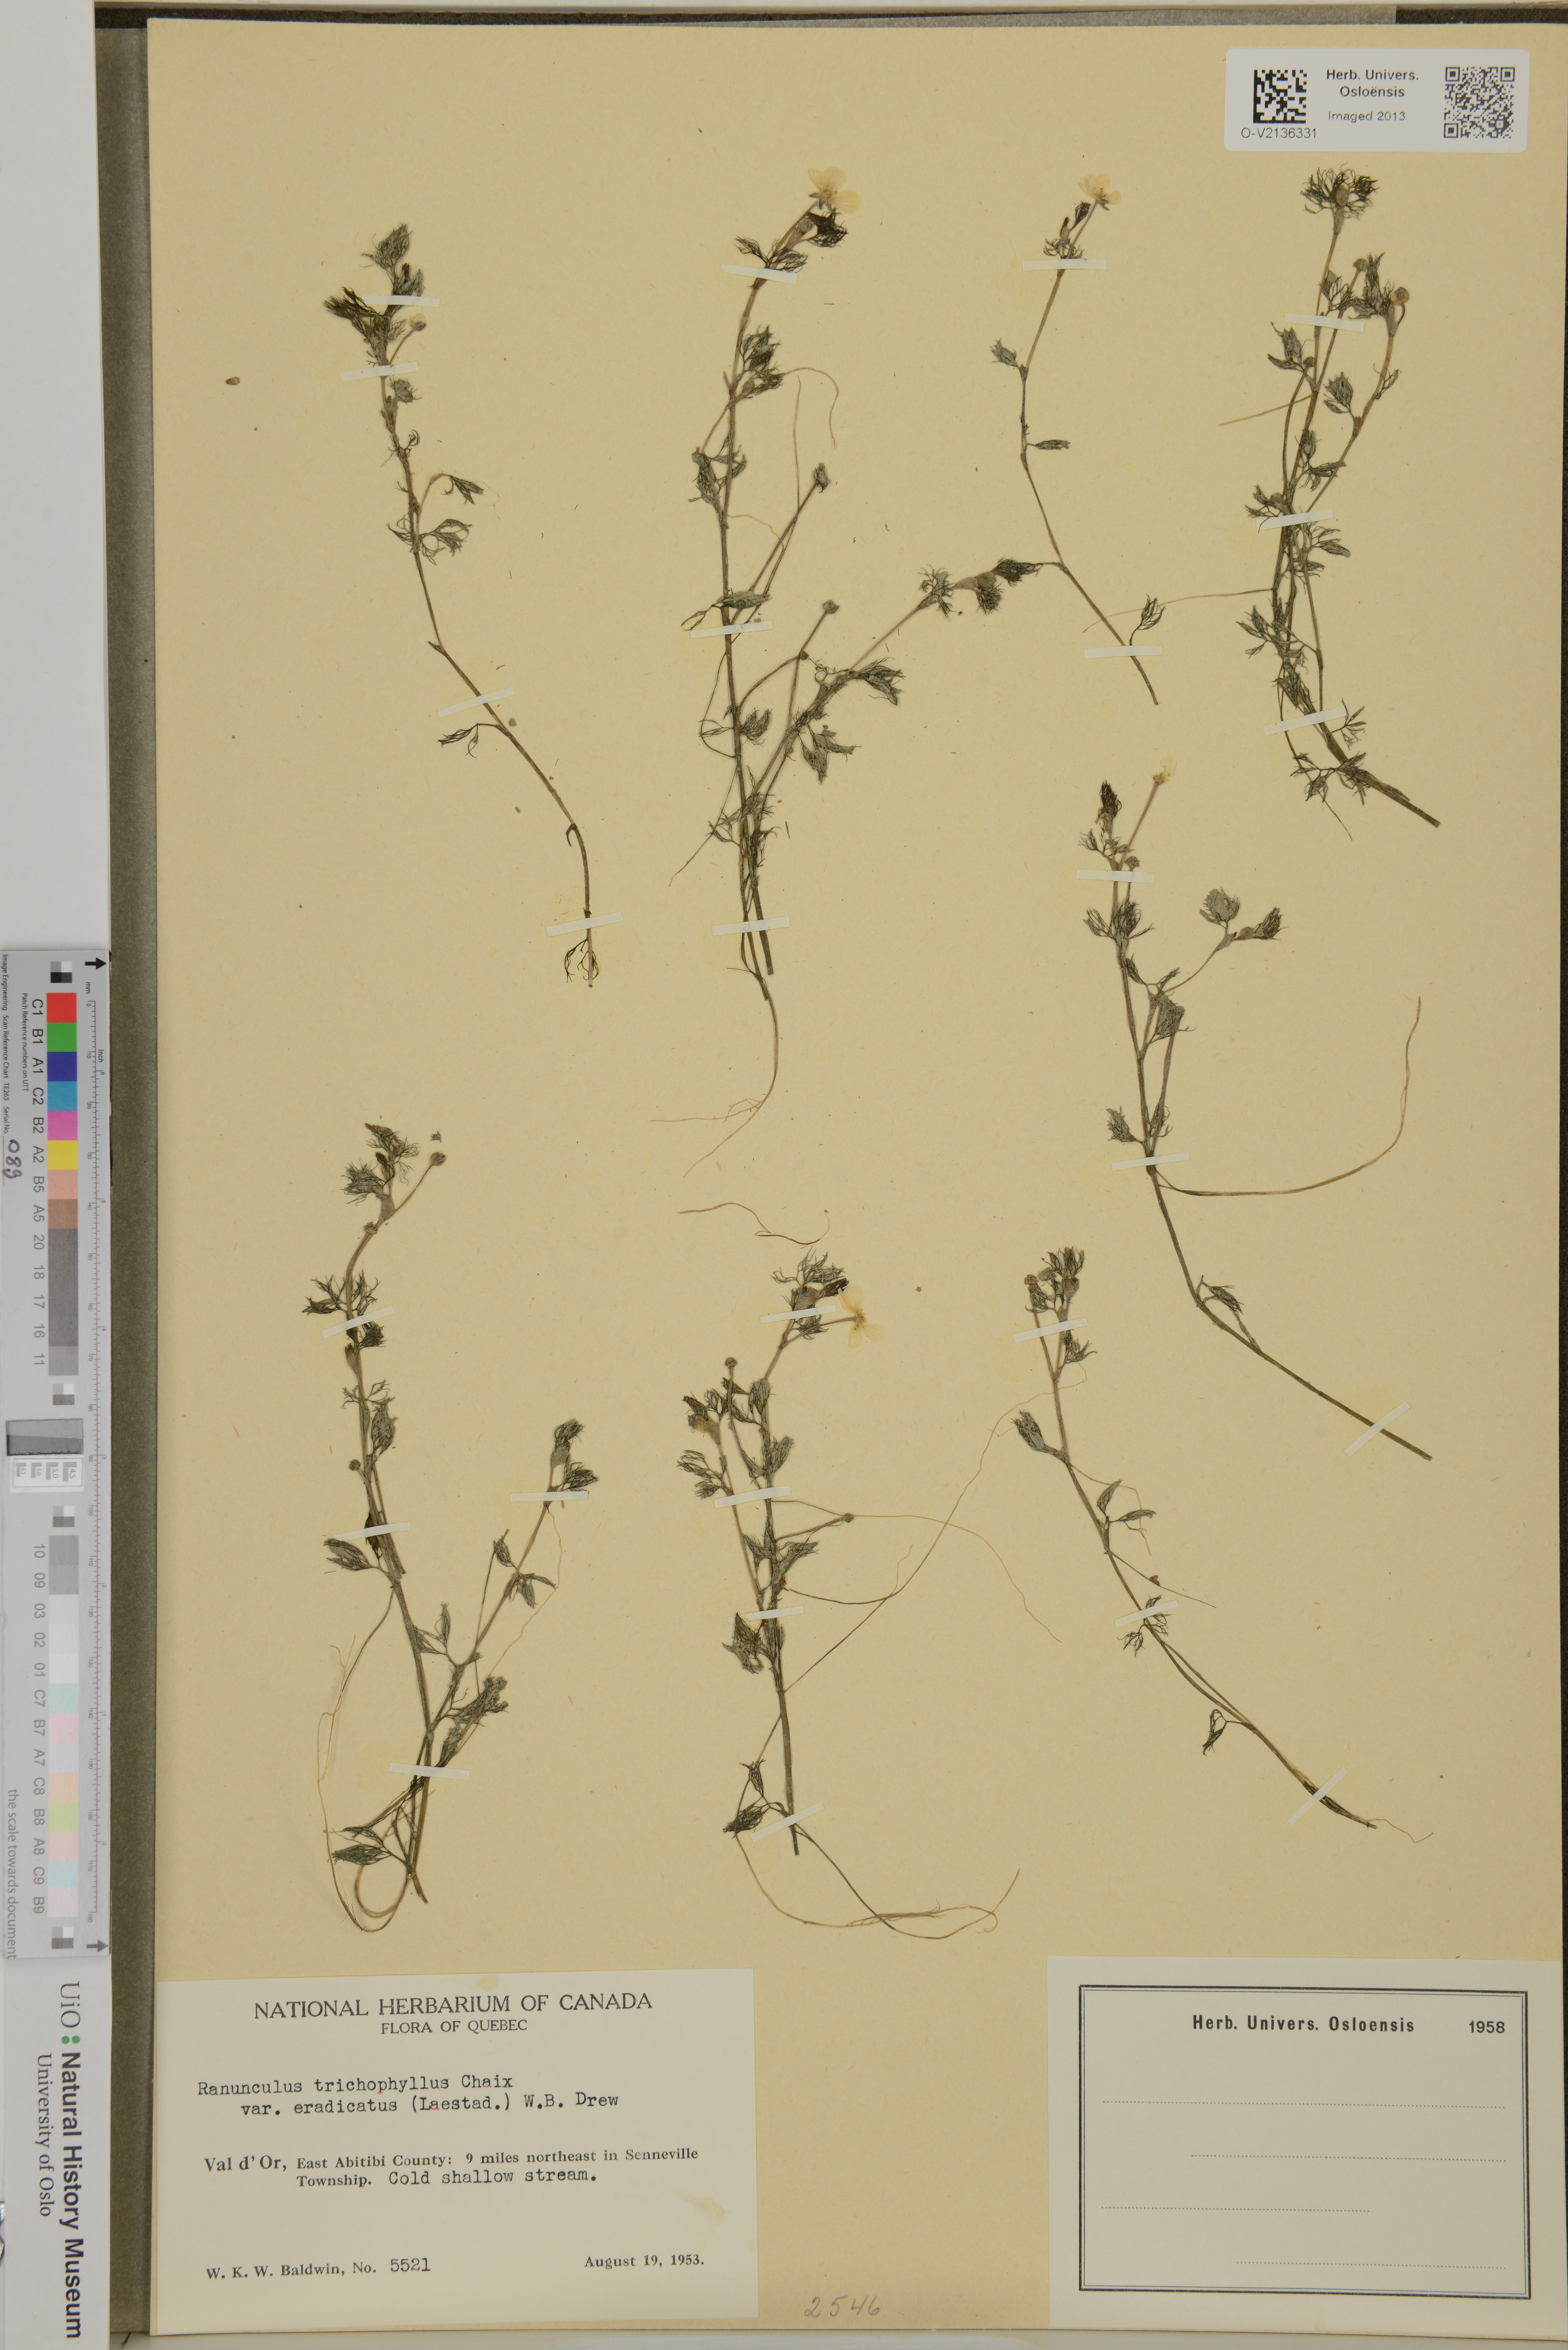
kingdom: Plantae
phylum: Tracheophyta
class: Magnoliopsida
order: Ranunculales
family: Ranunculaceae
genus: Ranunculus
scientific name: Ranunculus trichophyllus
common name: Thread-leaved water-crowfoot
